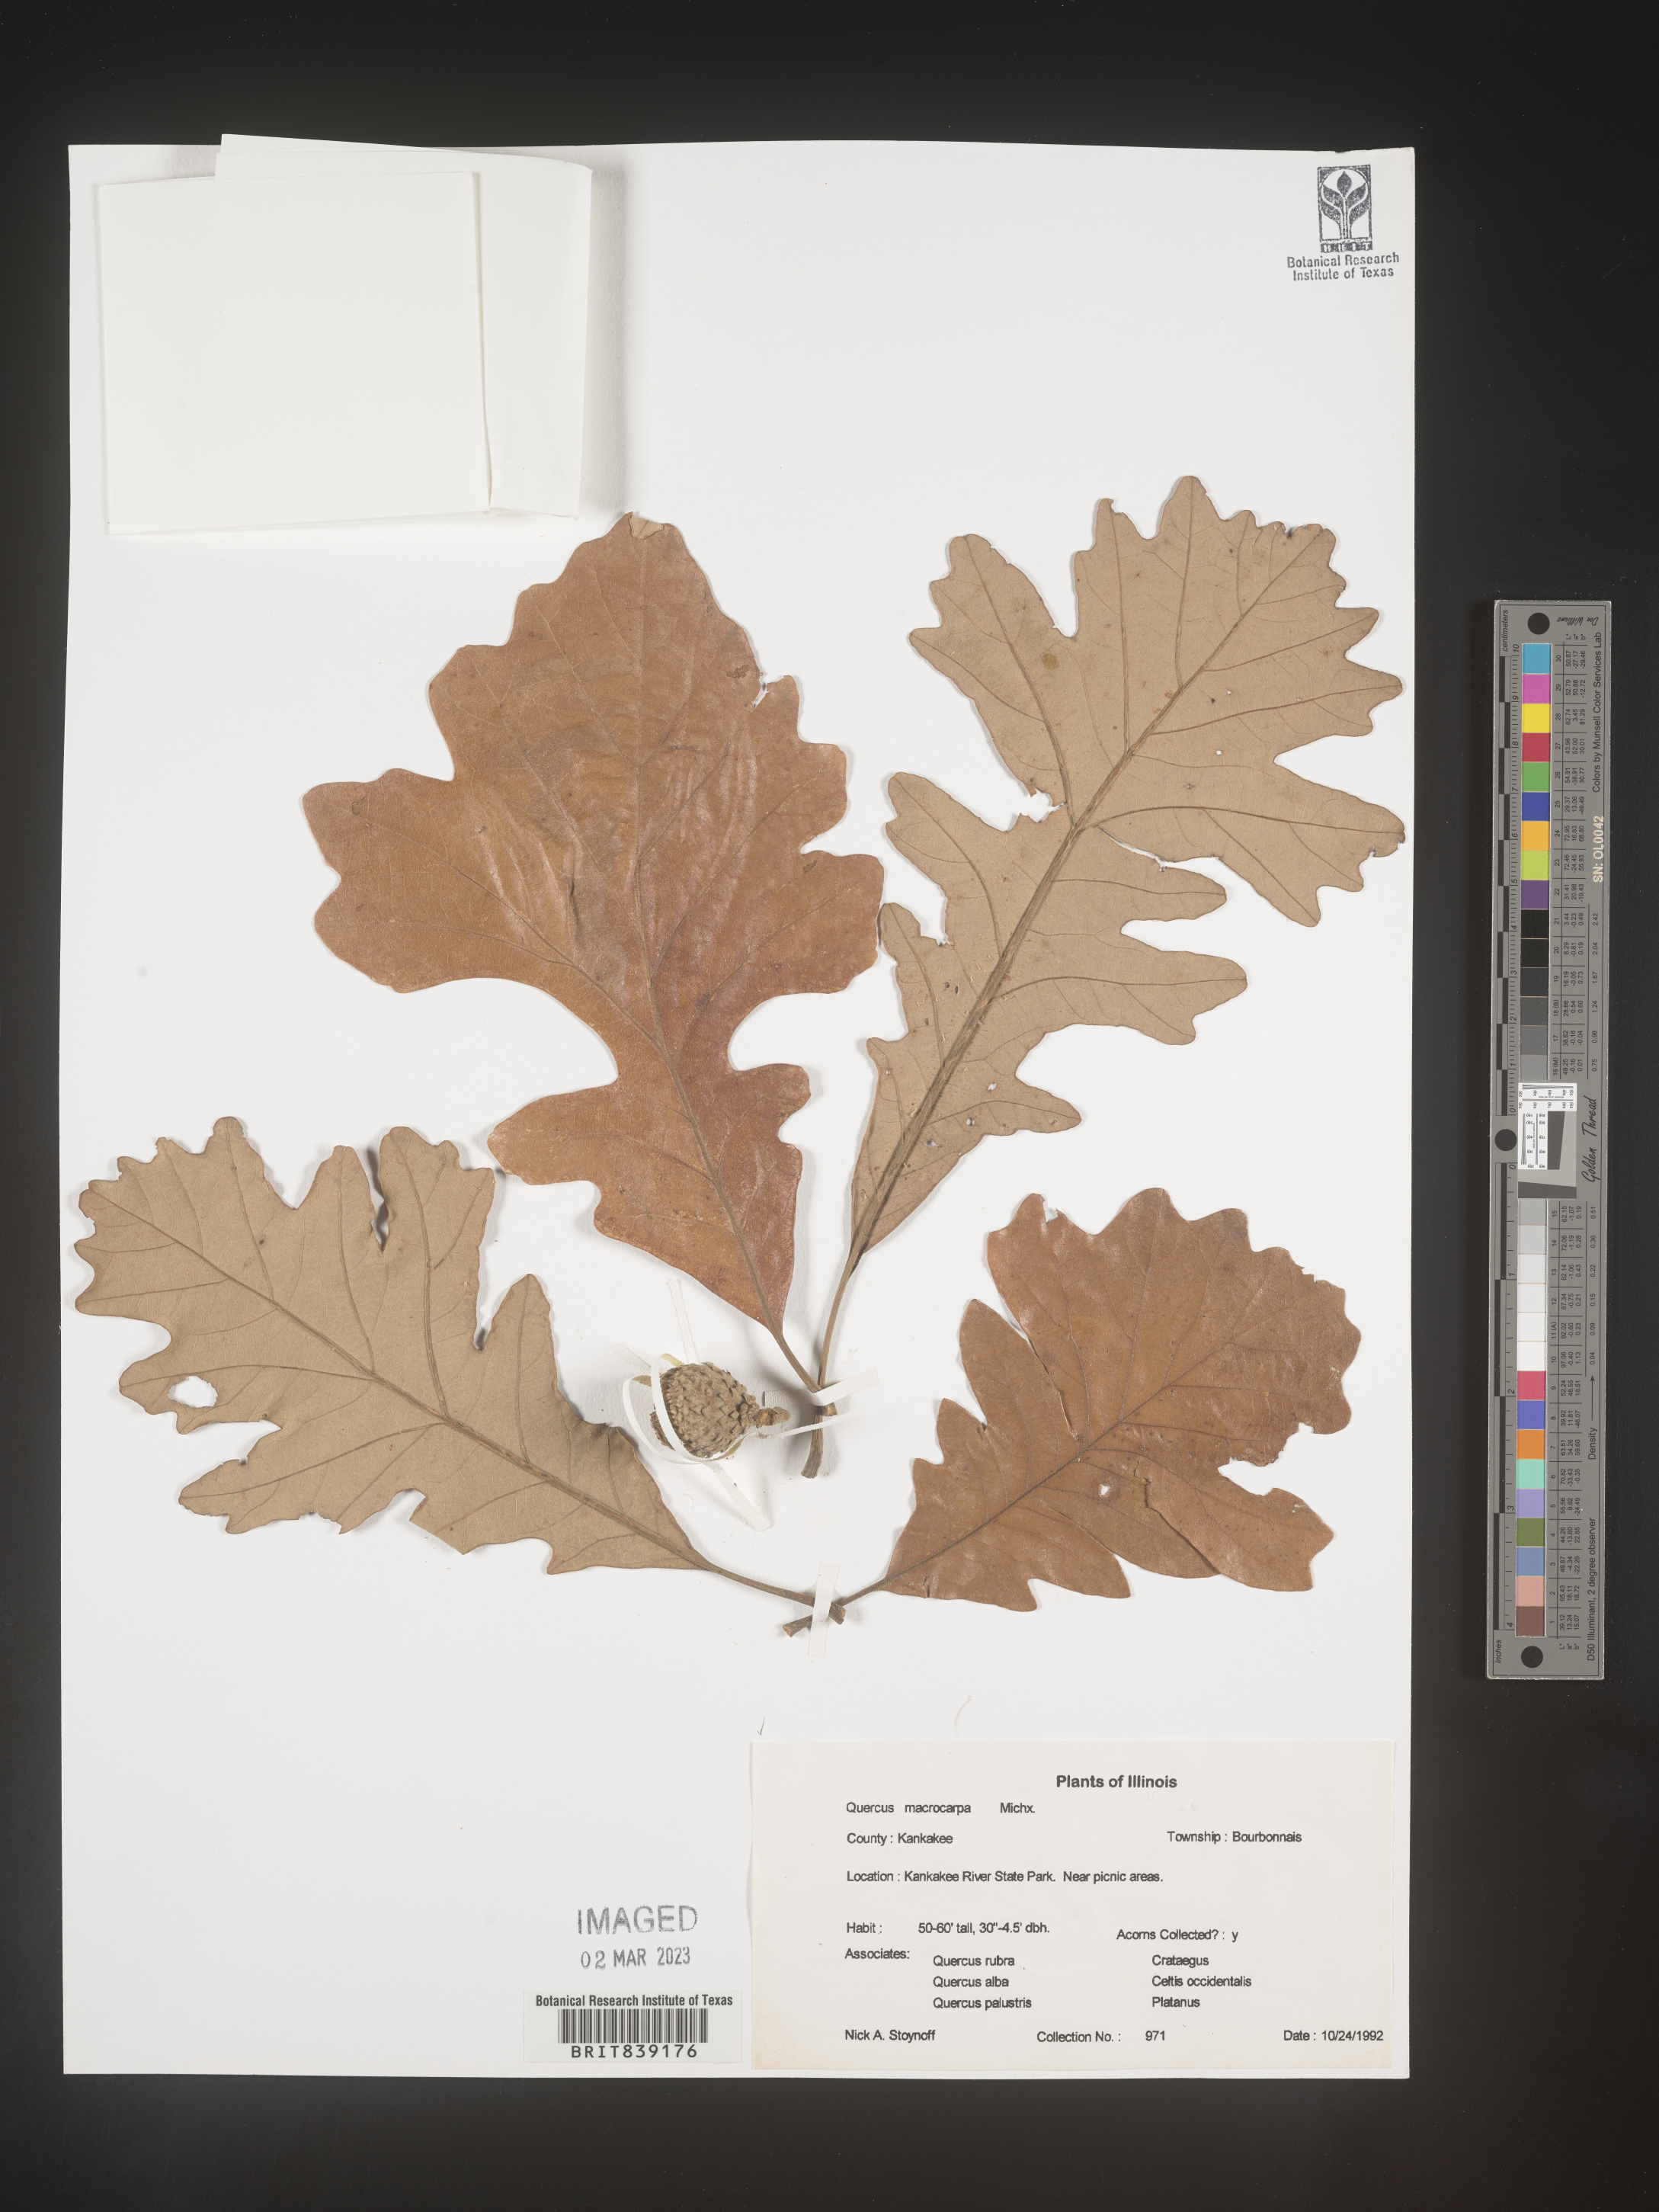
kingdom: Plantae
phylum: Tracheophyta
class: Magnoliopsida
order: Fagales
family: Fagaceae
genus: Quercus
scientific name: Quercus macrocarpa
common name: Bur oak
